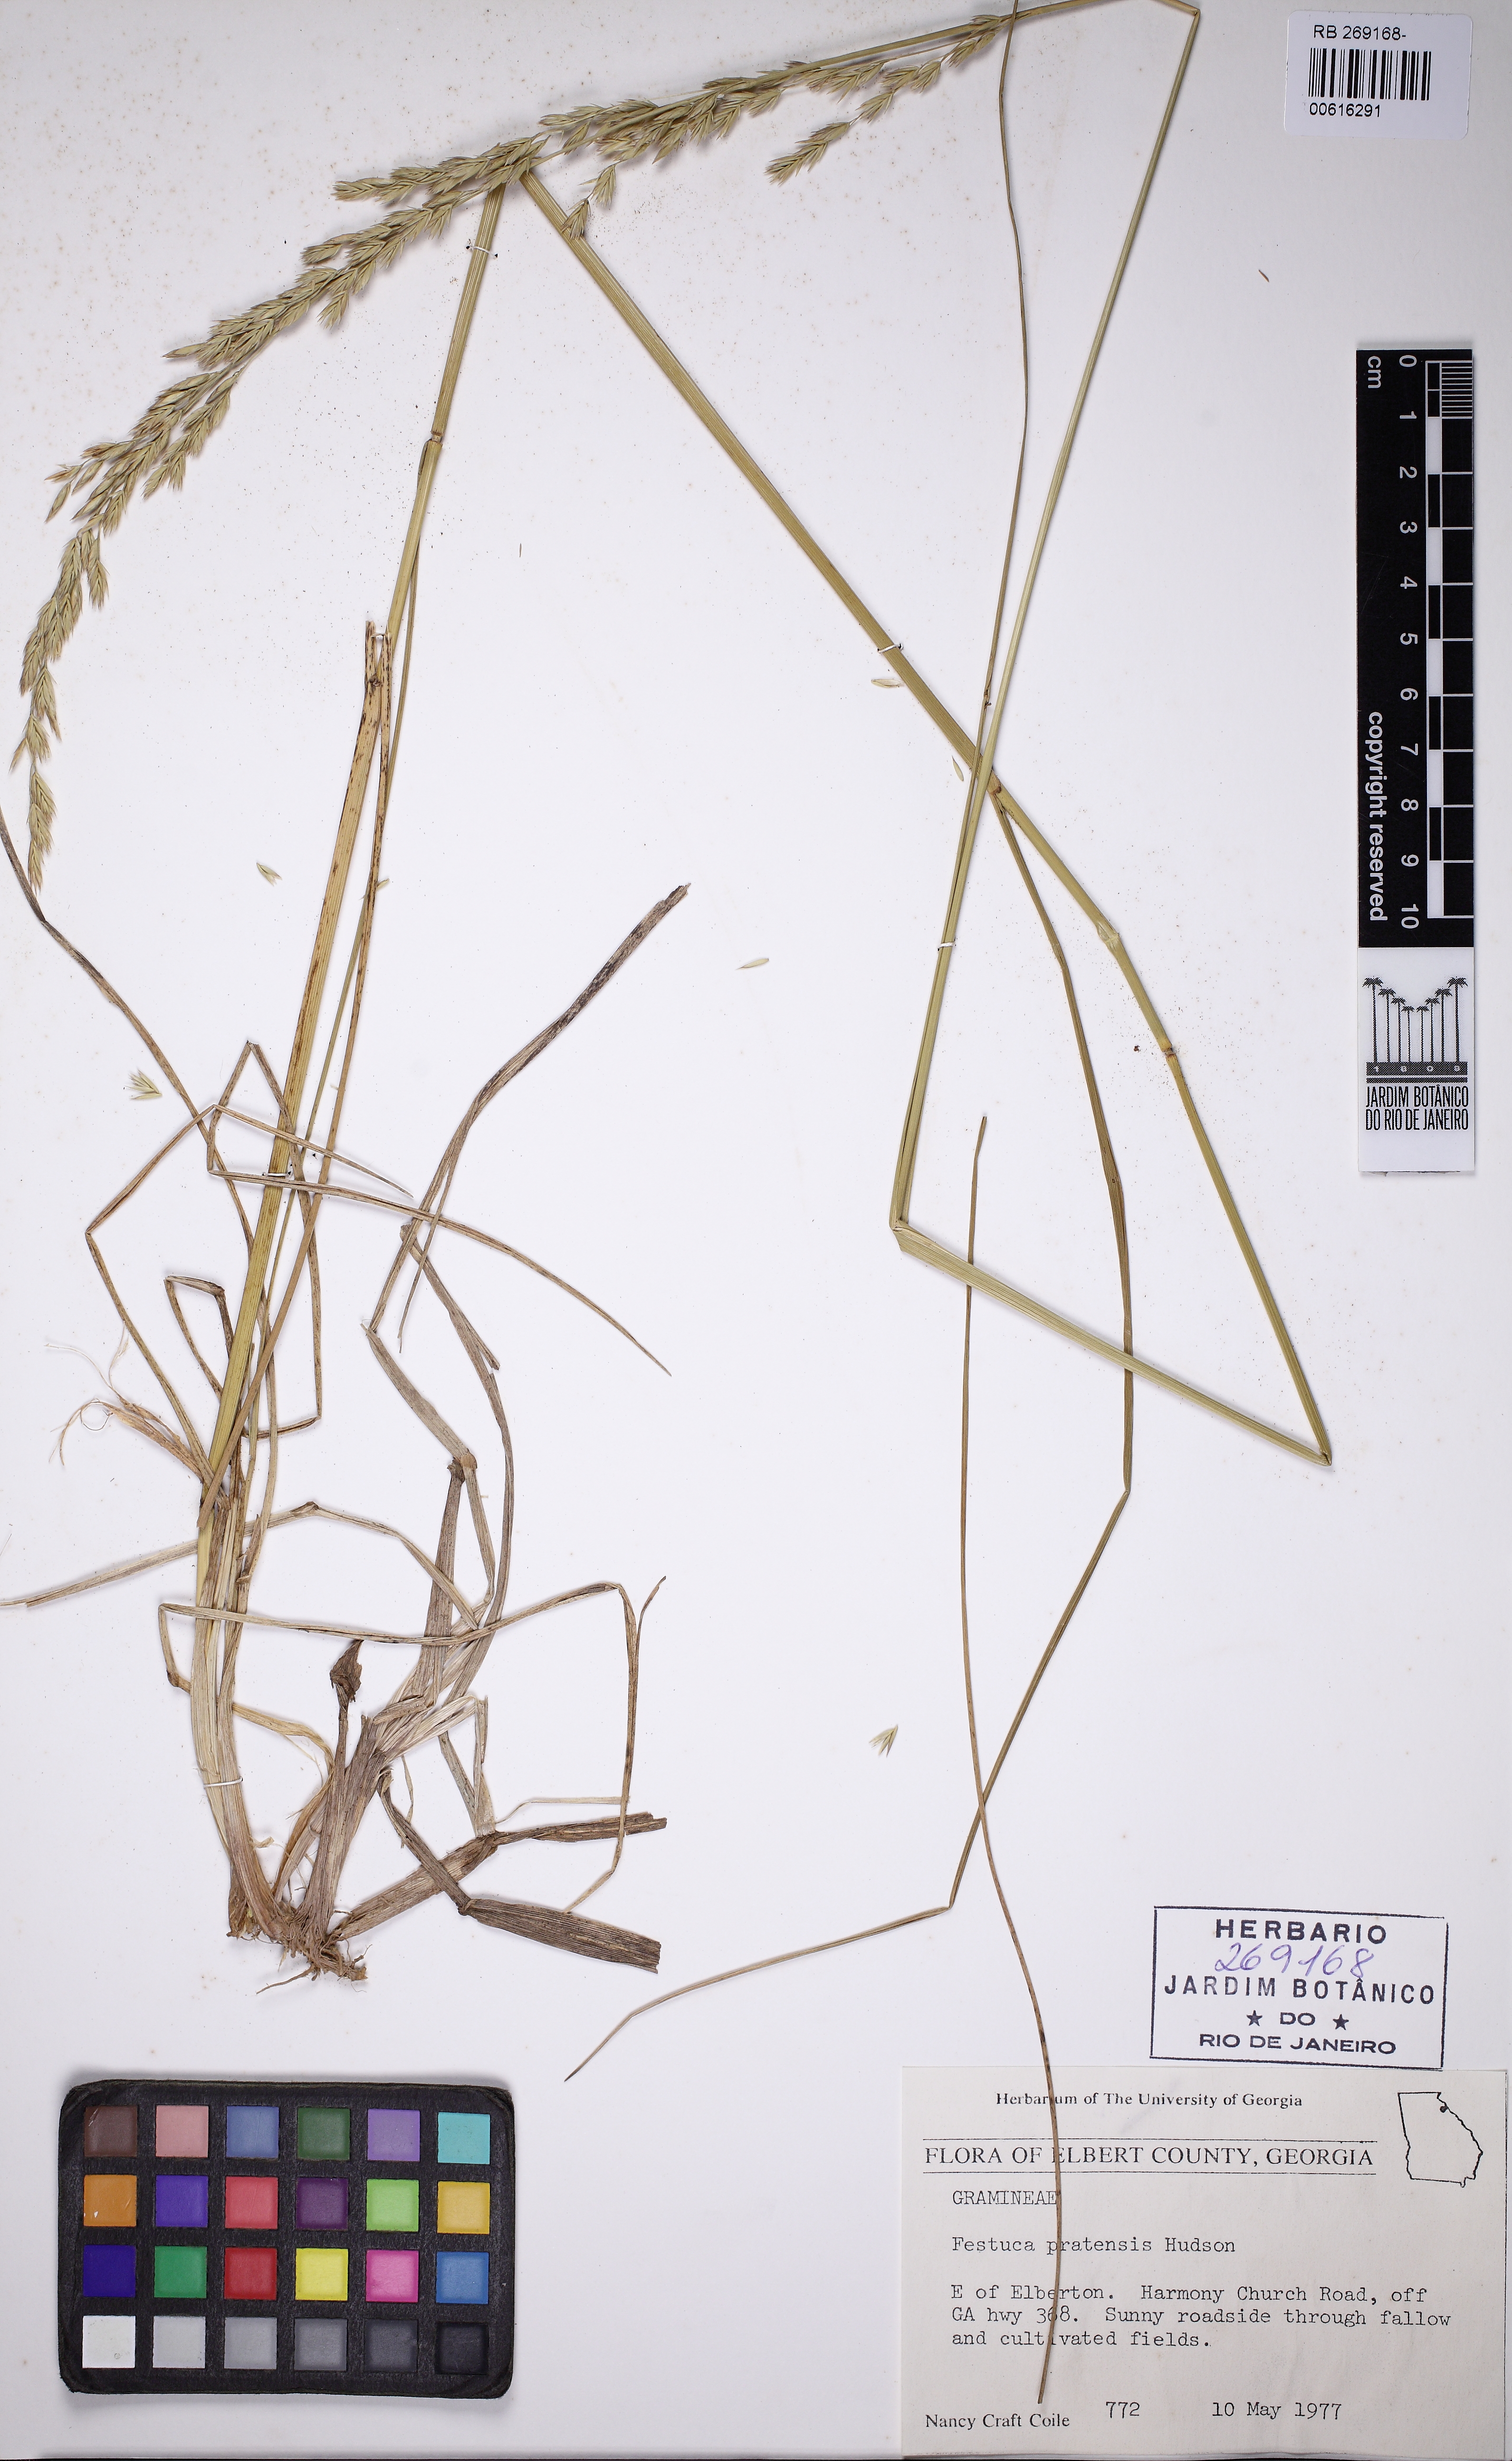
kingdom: Plantae
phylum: Tracheophyta
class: Liliopsida
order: Poales
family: Poaceae
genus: Lolium
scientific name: Lolium pratense
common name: Dover grass
